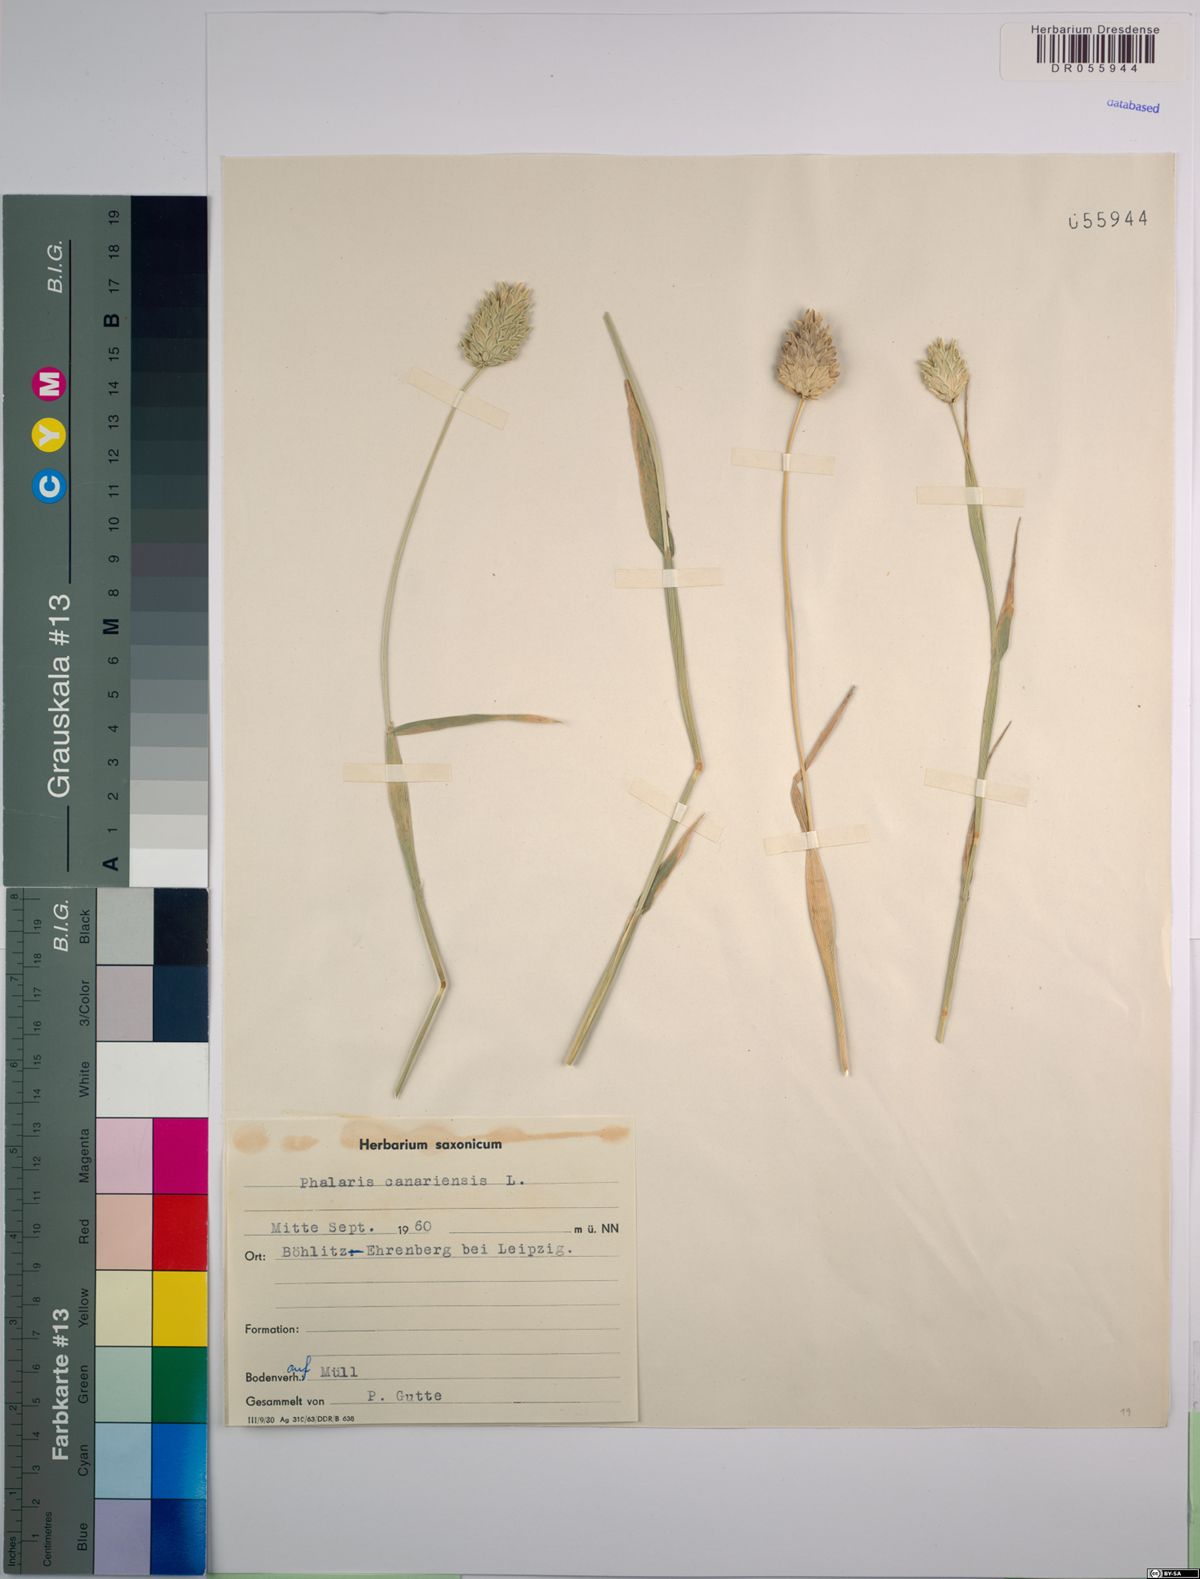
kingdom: Plantae
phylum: Tracheophyta
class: Liliopsida
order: Poales
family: Poaceae
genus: Phalaris
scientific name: Phalaris canariensis
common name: Annual canarygrass
